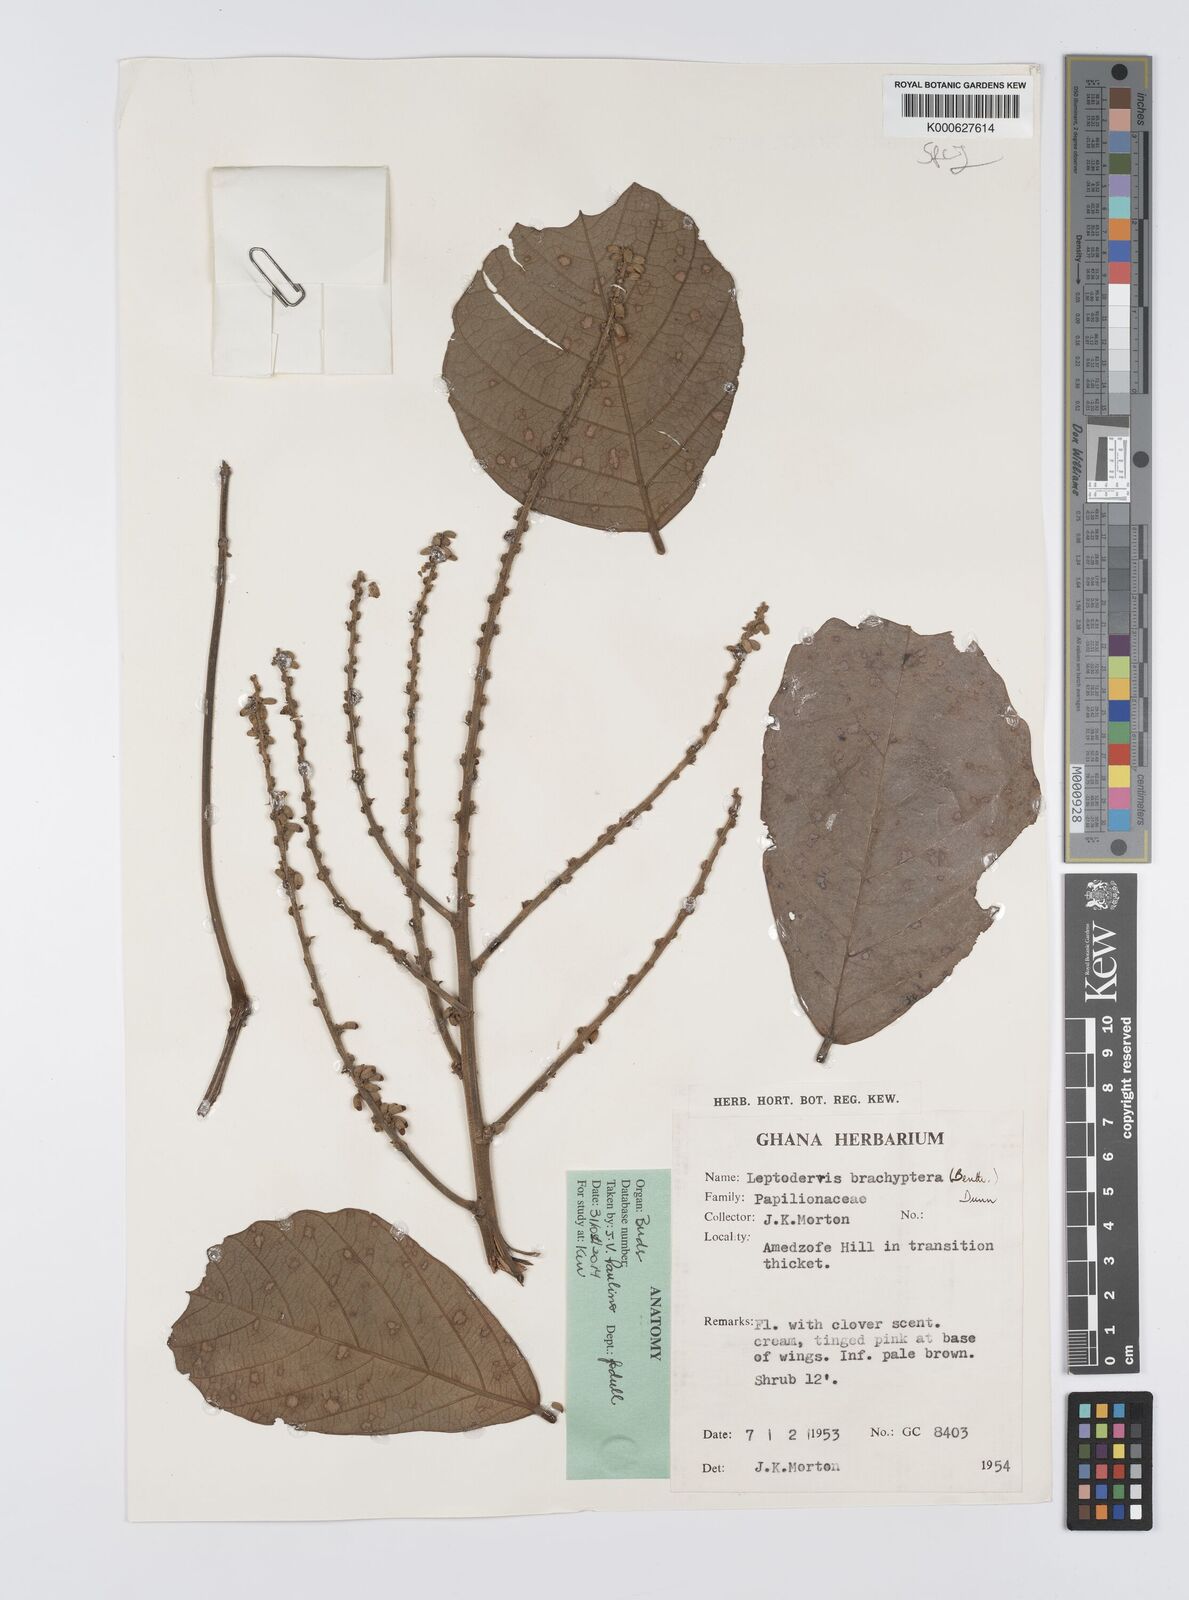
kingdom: Plantae
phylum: Tracheophyta
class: Magnoliopsida
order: Fabales
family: Fabaceae
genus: Leptoderris
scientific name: Leptoderris brachyptera
